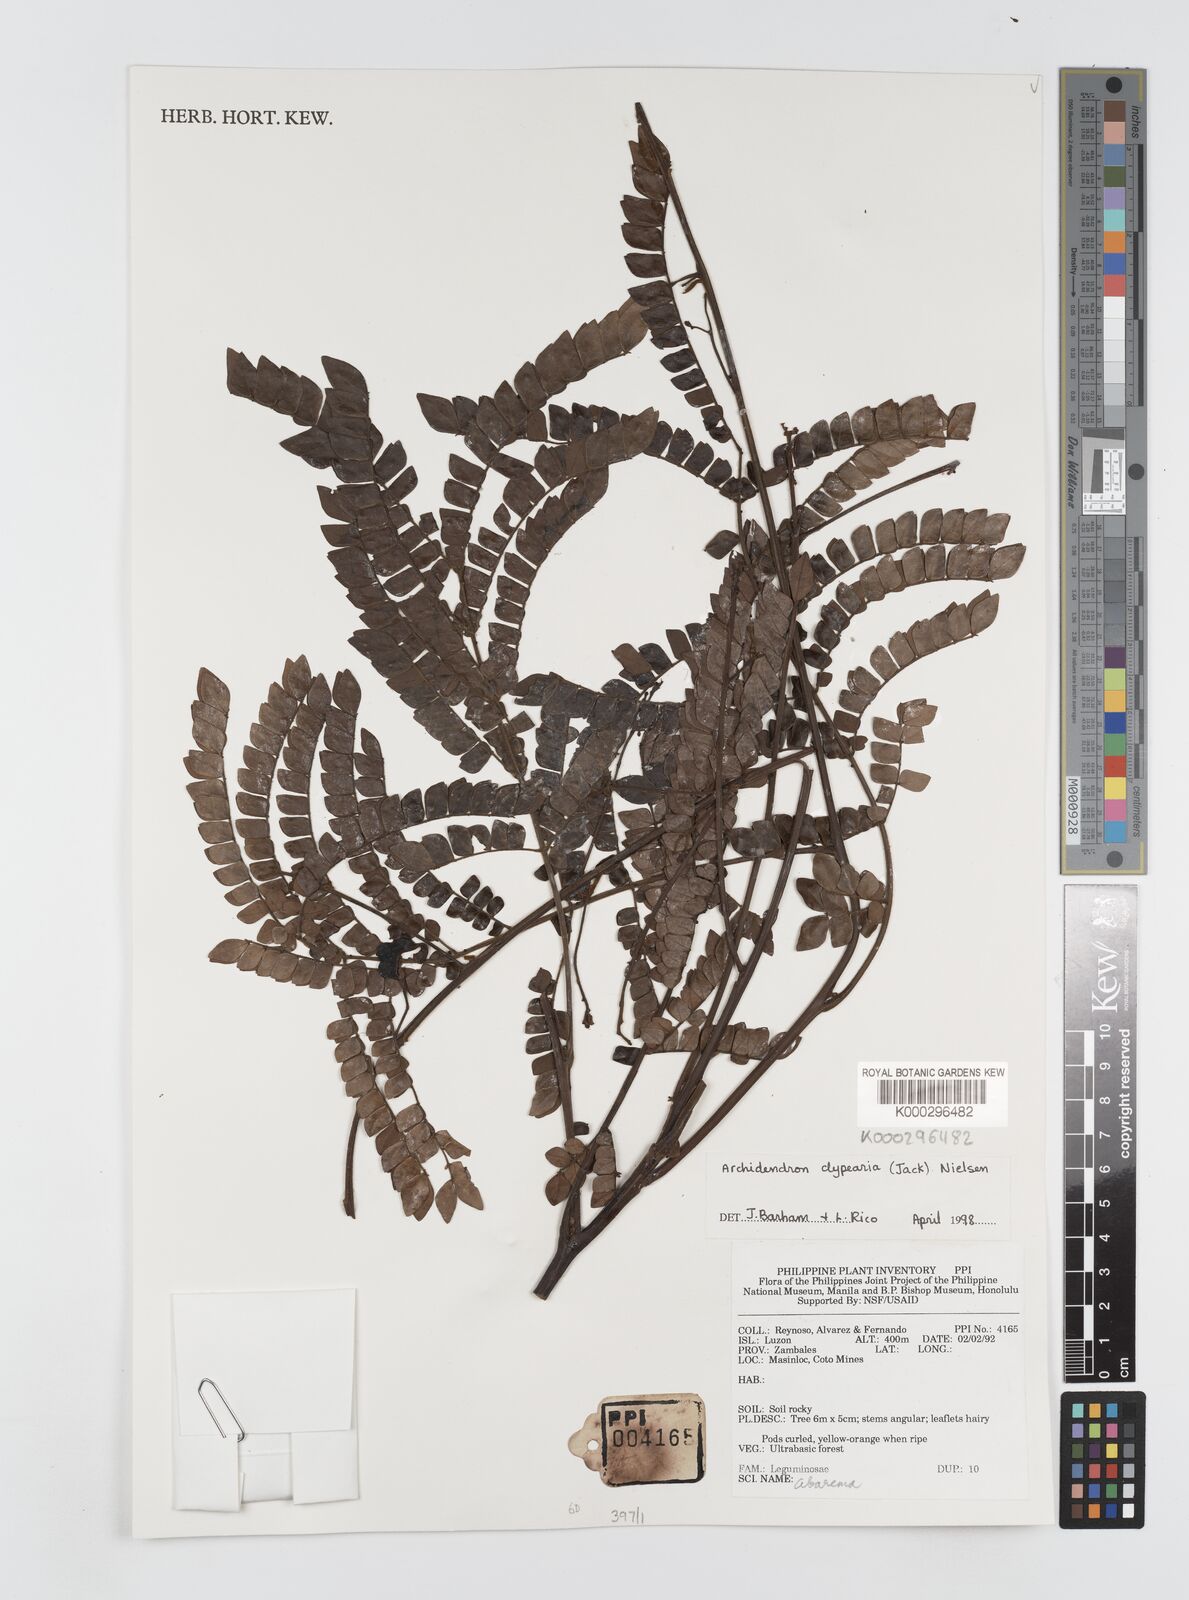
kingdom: Plantae
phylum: Tracheophyta
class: Magnoliopsida
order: Fabales
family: Fabaceae
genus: Archidendron
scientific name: Archidendron clypearia
